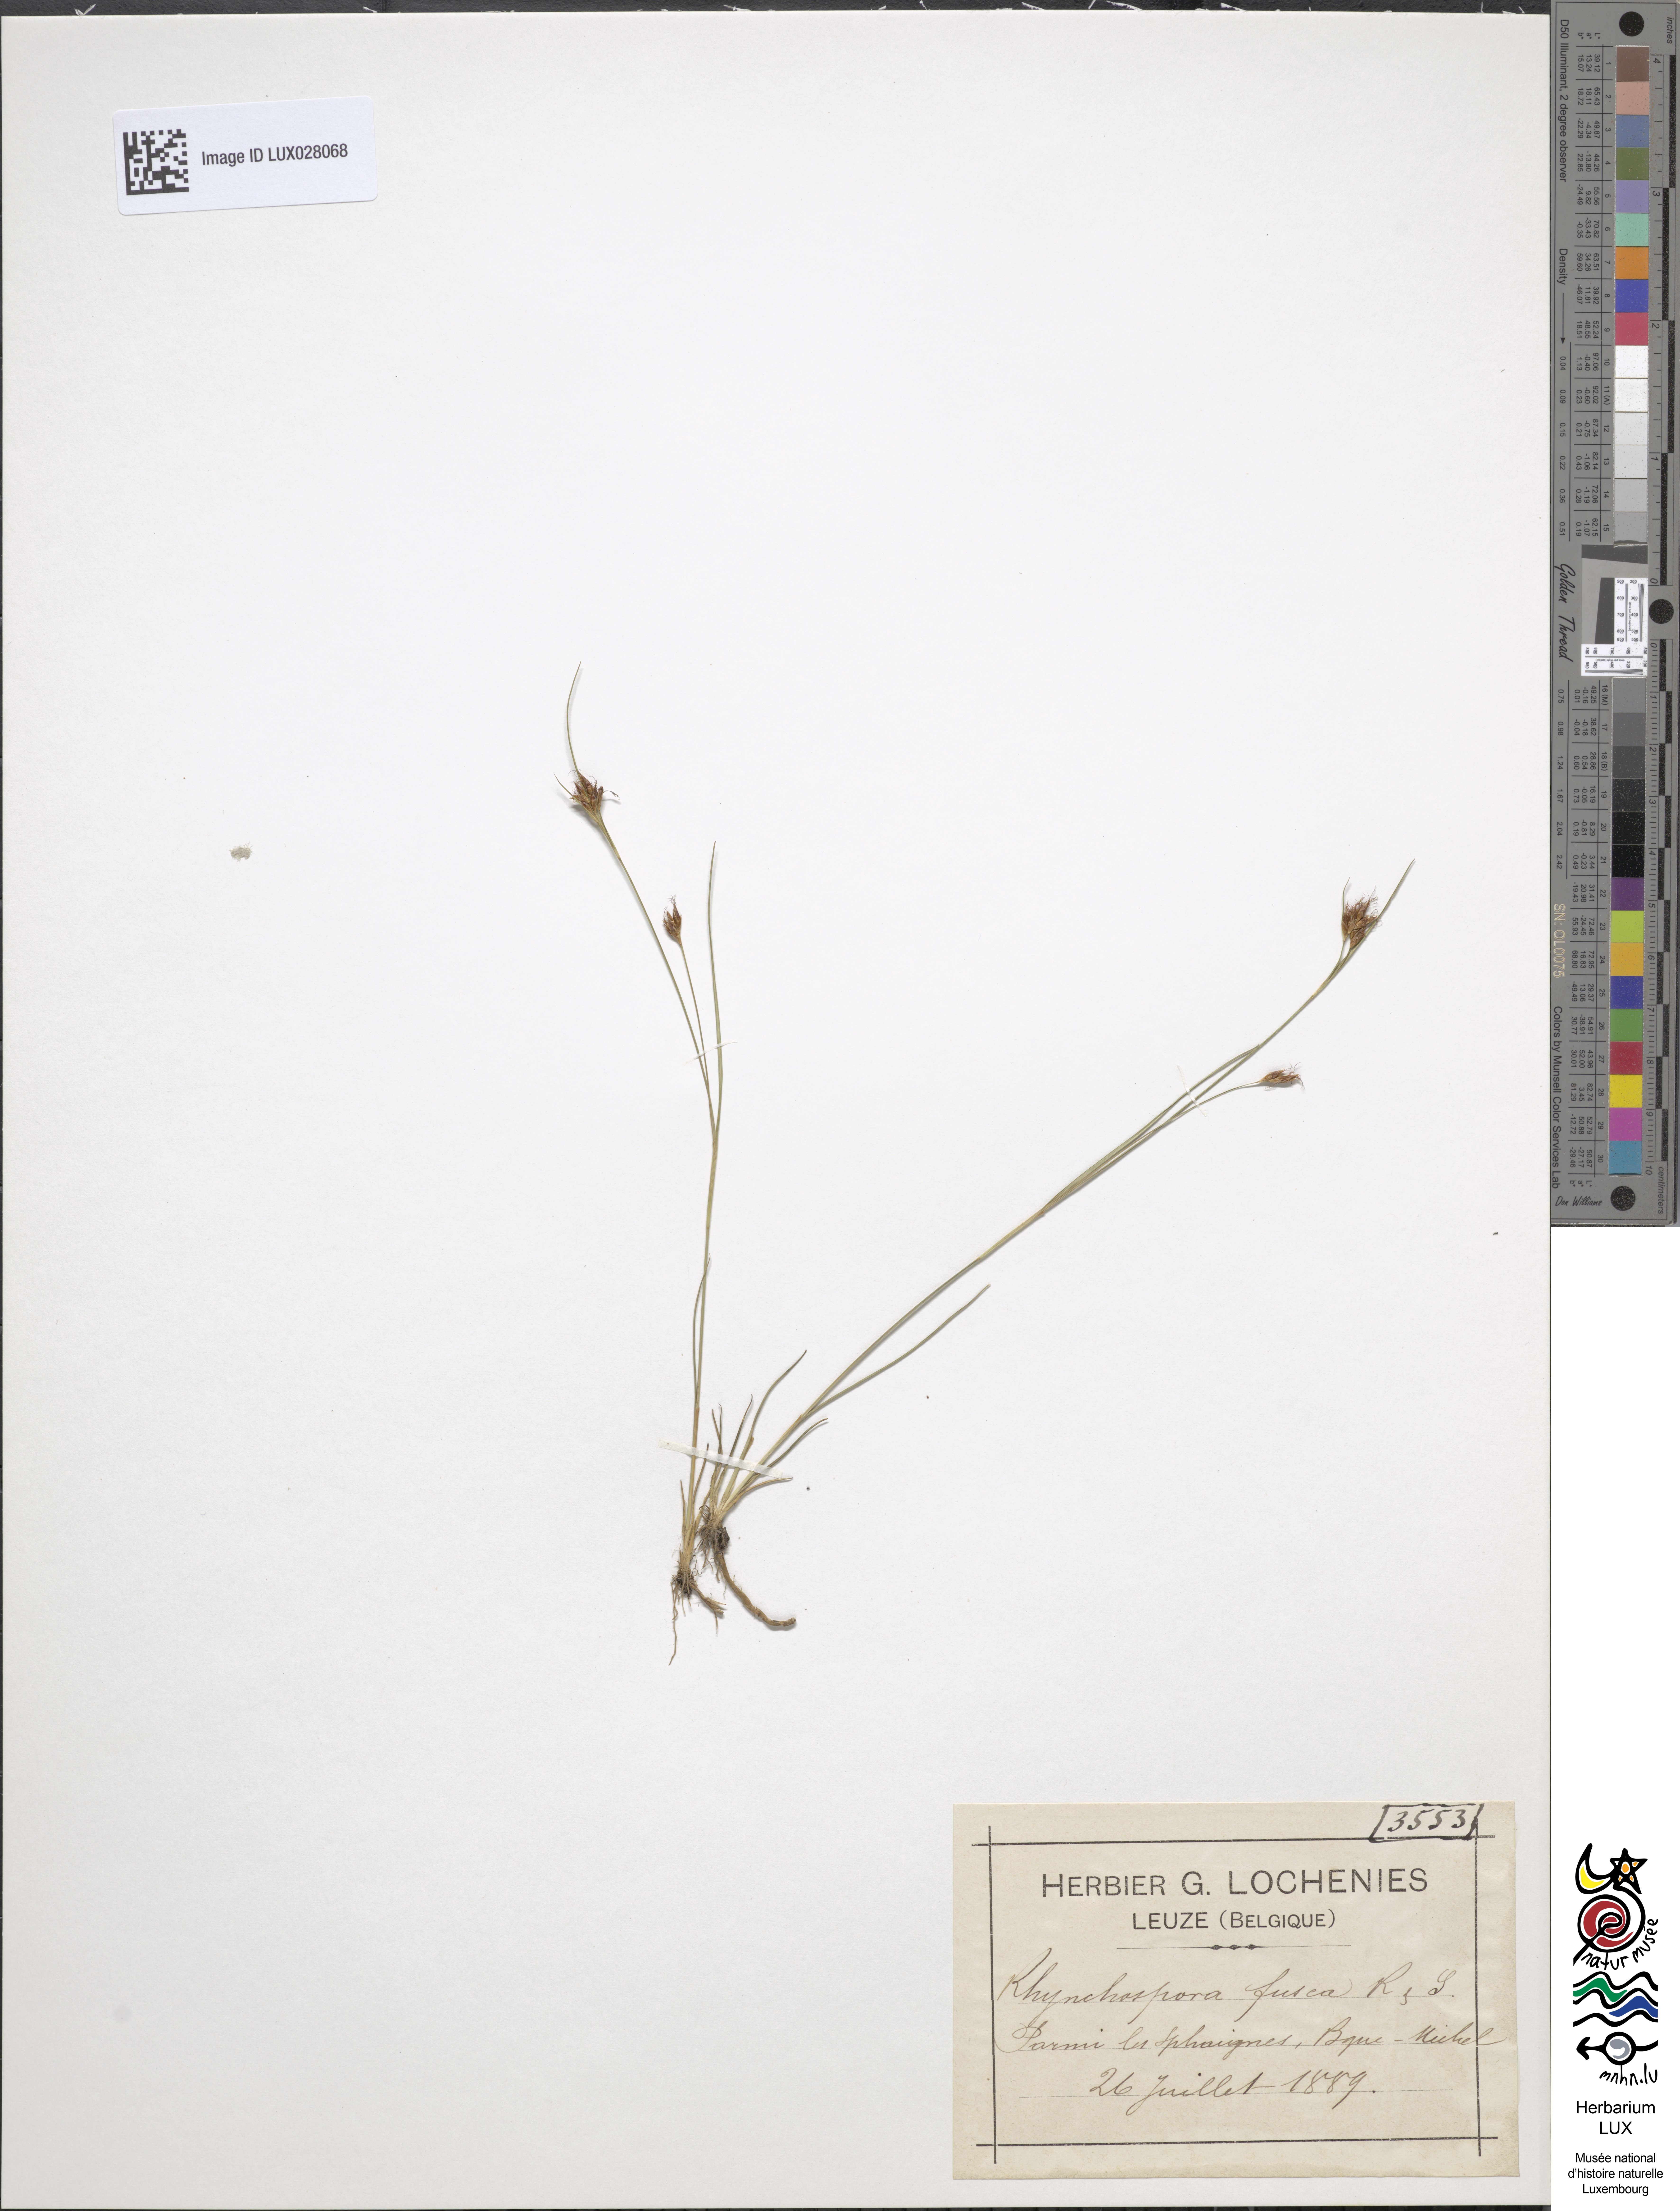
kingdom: Plantae
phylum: Tracheophyta
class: Liliopsida
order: Poales
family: Cyperaceae
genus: Rhynchospora
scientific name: Rhynchospora fusca
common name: Brown beak-sedge
